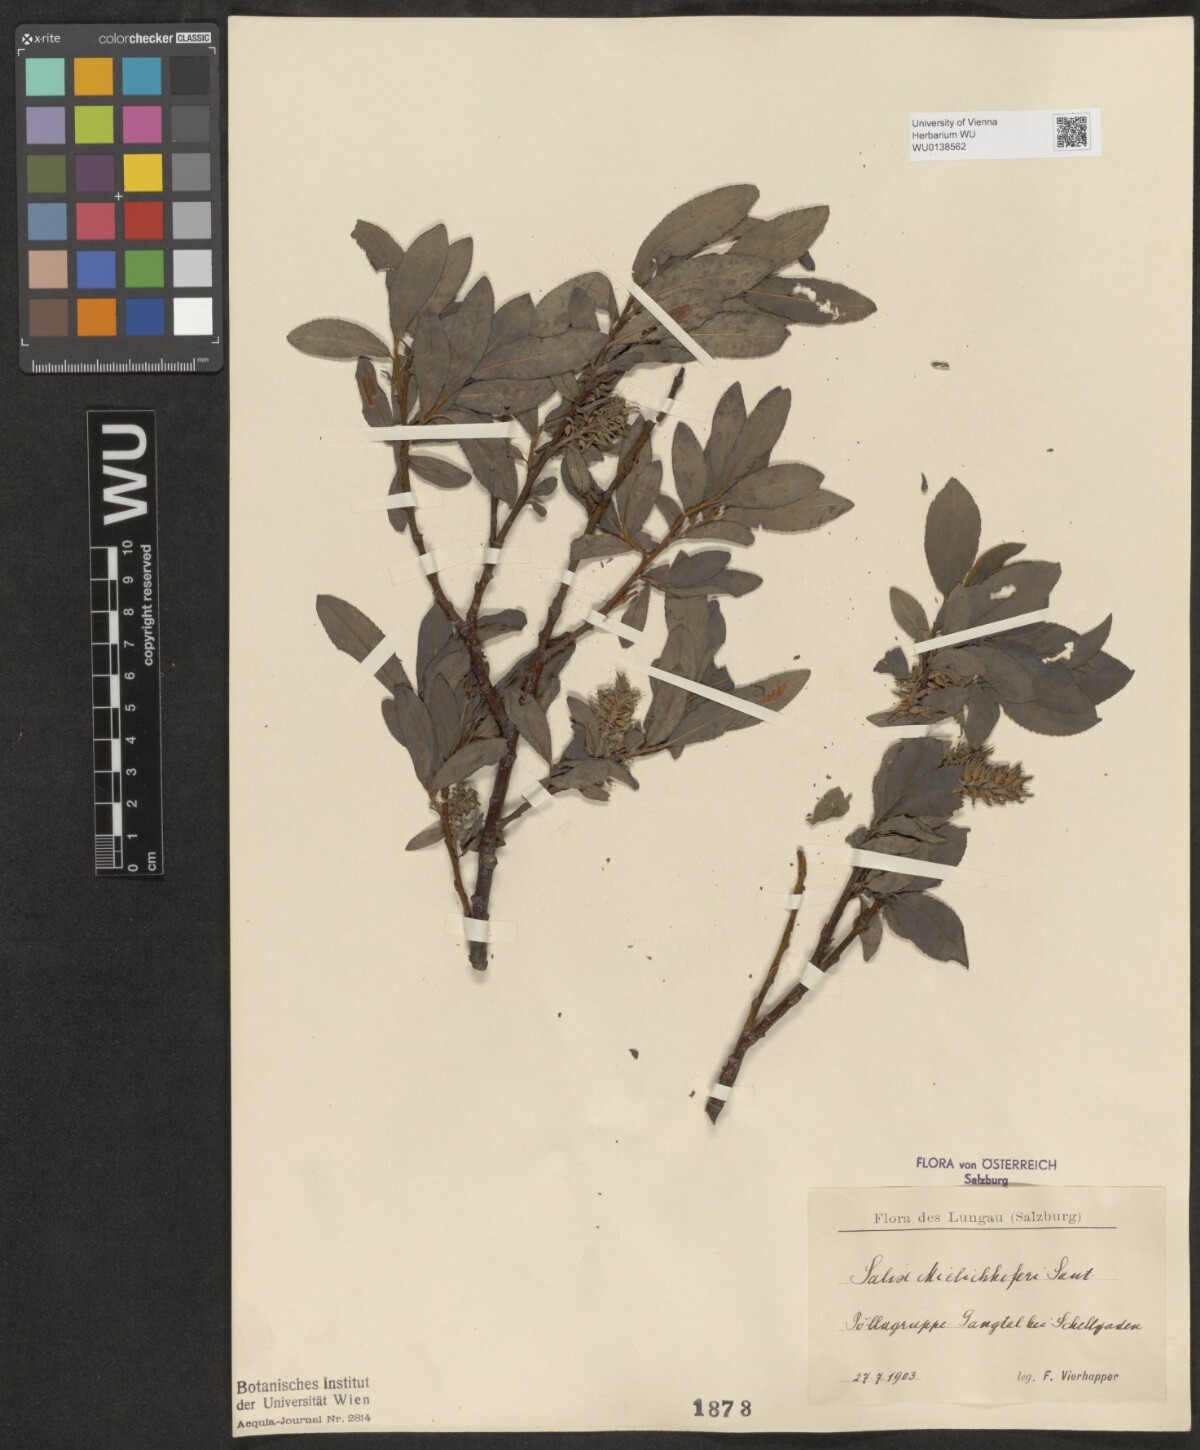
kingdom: Plantae
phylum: Tracheophyta
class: Magnoliopsida
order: Malpighiales
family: Salicaceae
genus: Salix
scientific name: Salix mielichhoferi
